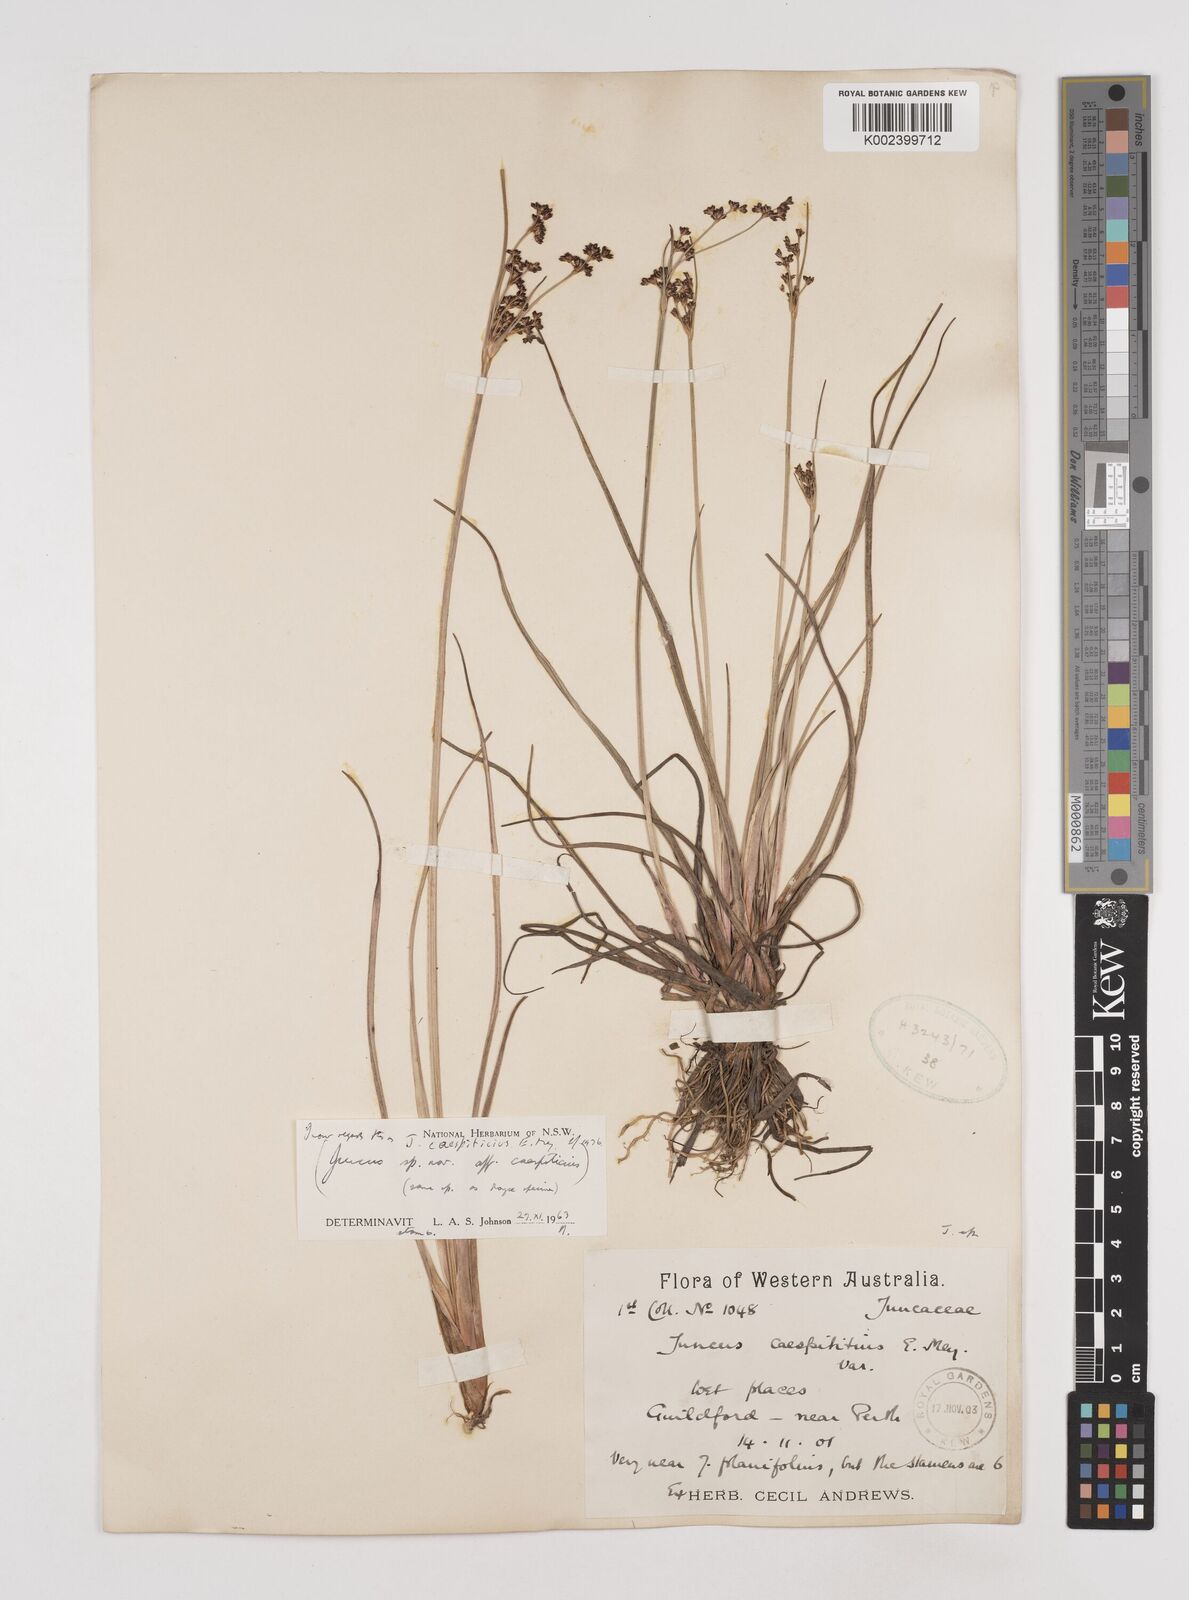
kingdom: Plantae
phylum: Tracheophyta
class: Liliopsida
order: Poales
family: Juncaceae
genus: Juncus
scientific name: Juncus caespiticius
